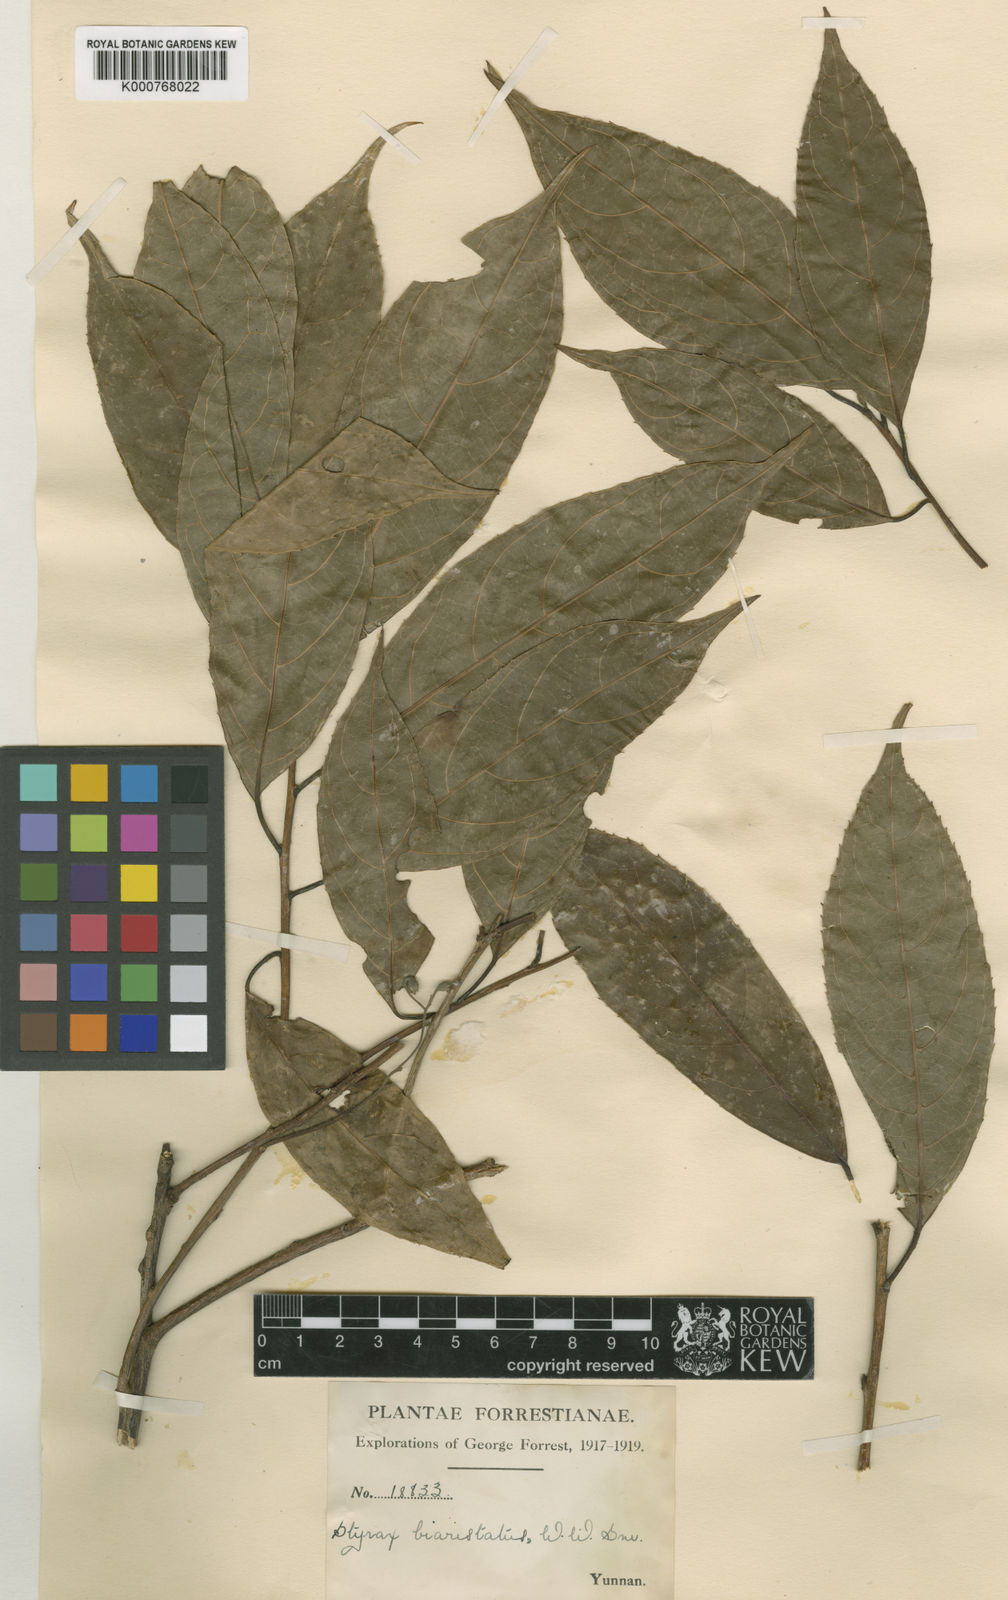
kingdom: Plantae
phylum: Tracheophyta
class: Magnoliopsida
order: Ericales
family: Styracaceae
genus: Huodendron
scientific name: Huodendron biaristatum
